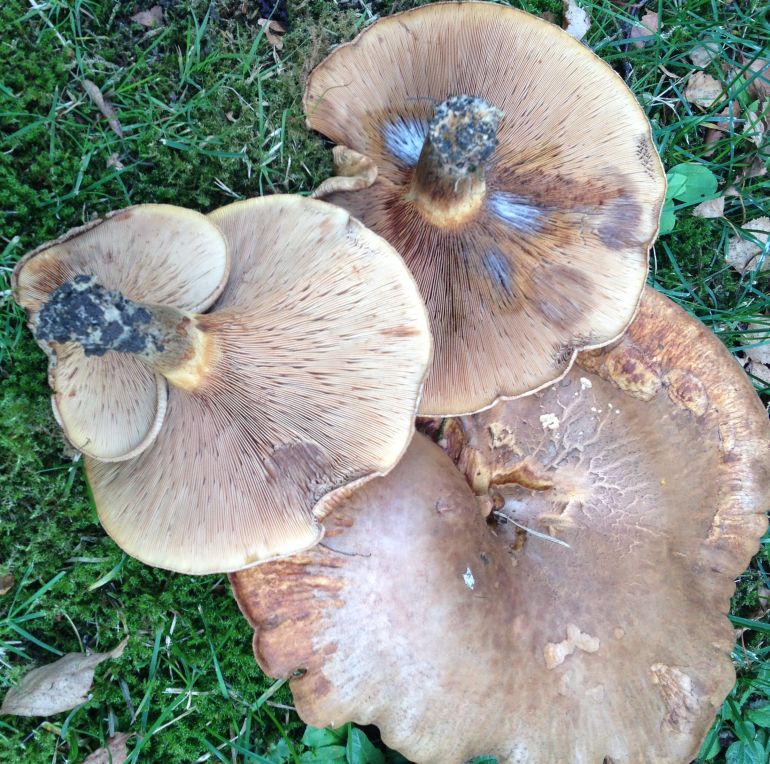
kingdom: Fungi
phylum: Basidiomycota
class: Agaricomycetes
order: Boletales
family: Paxillaceae
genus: Paxillus
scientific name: Paxillus obscurisporus
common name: mahognisporet netbladhat
